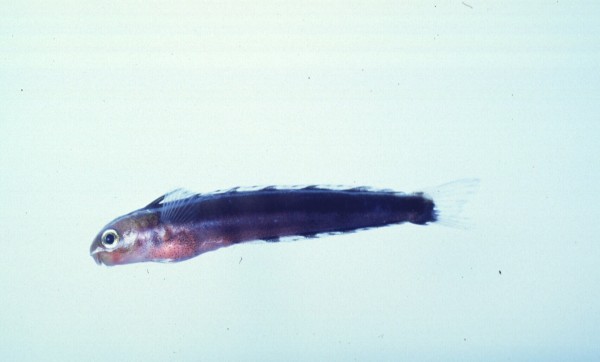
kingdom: Animalia
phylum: Chordata
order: Perciformes
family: Blenniidae
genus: Plagiotremus
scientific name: Plagiotremus rhinorhynchos
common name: Bluestriped fangblenny
